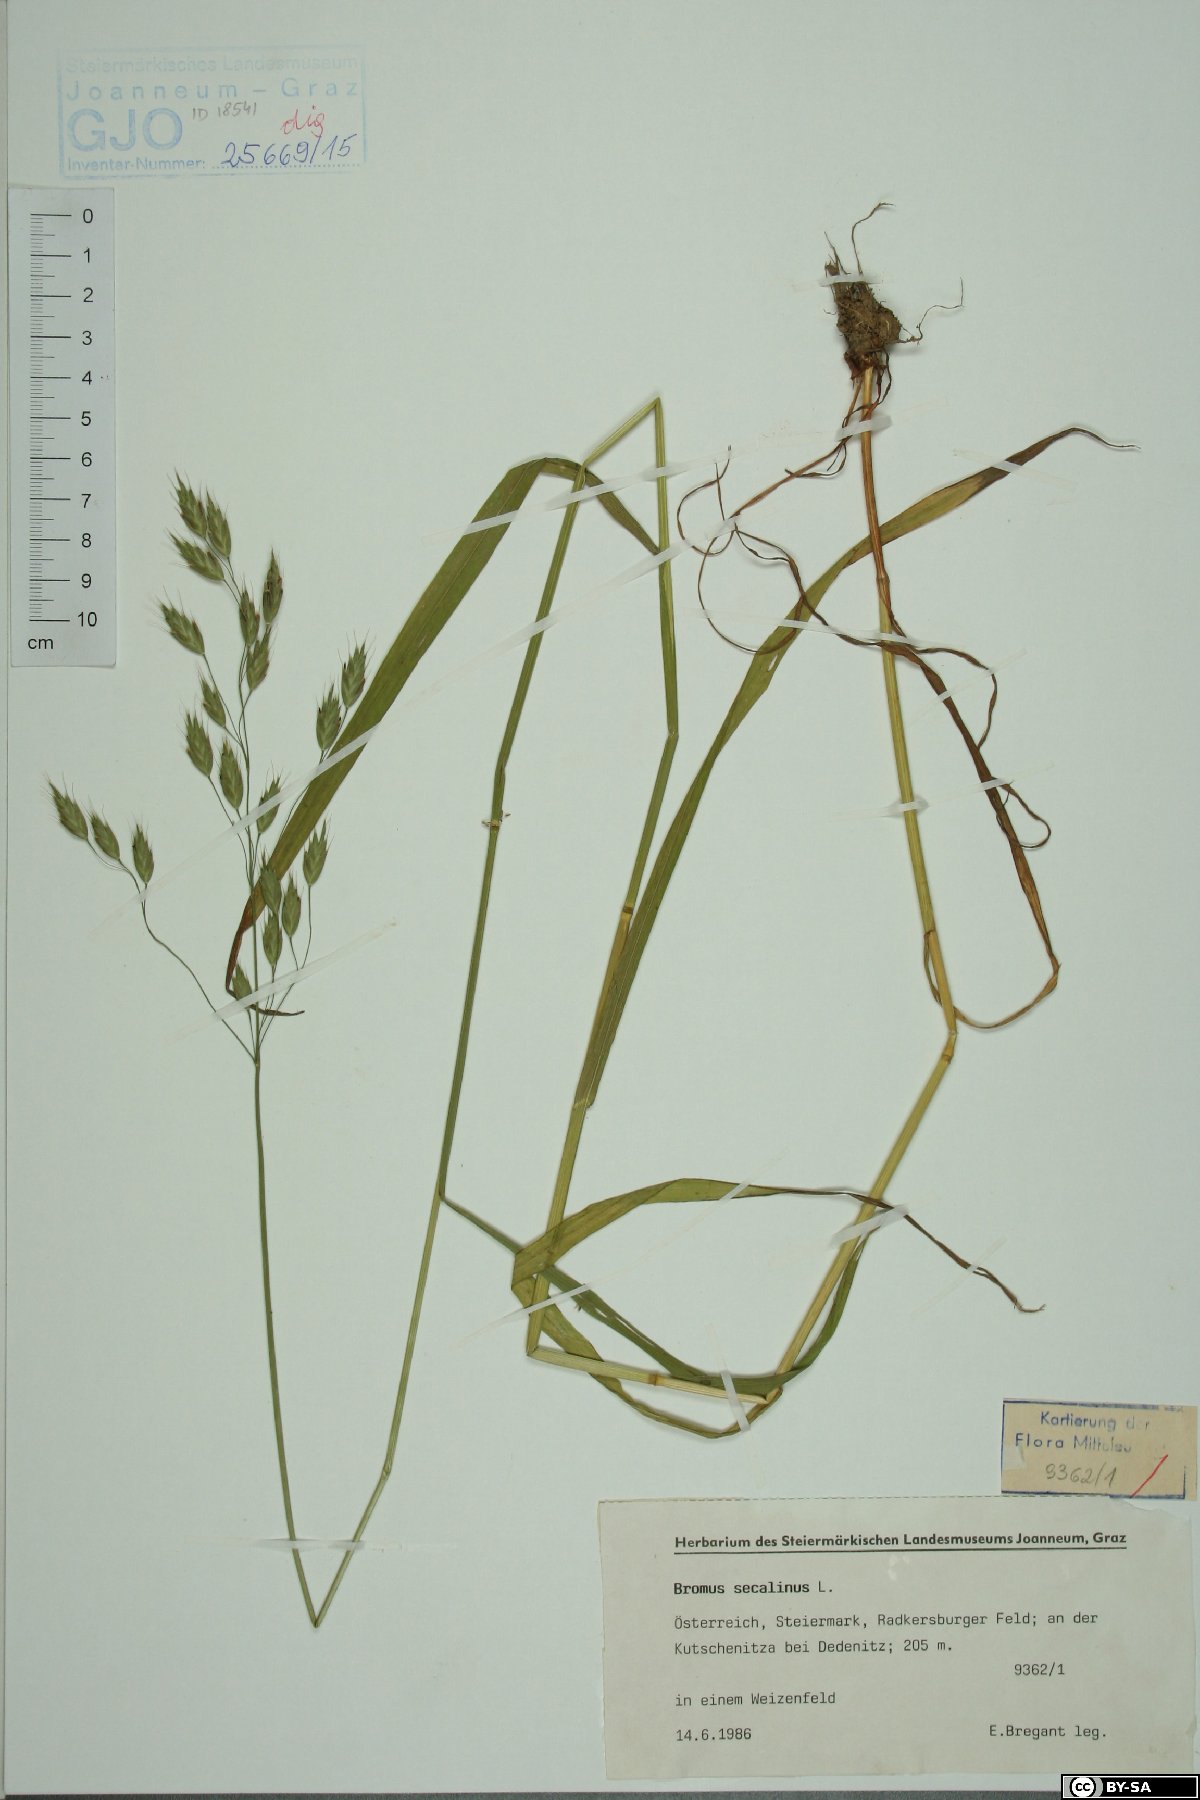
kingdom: Plantae
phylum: Tracheophyta
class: Liliopsida
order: Poales
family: Poaceae
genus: Bromus
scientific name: Bromus secalinus
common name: Rye brome
